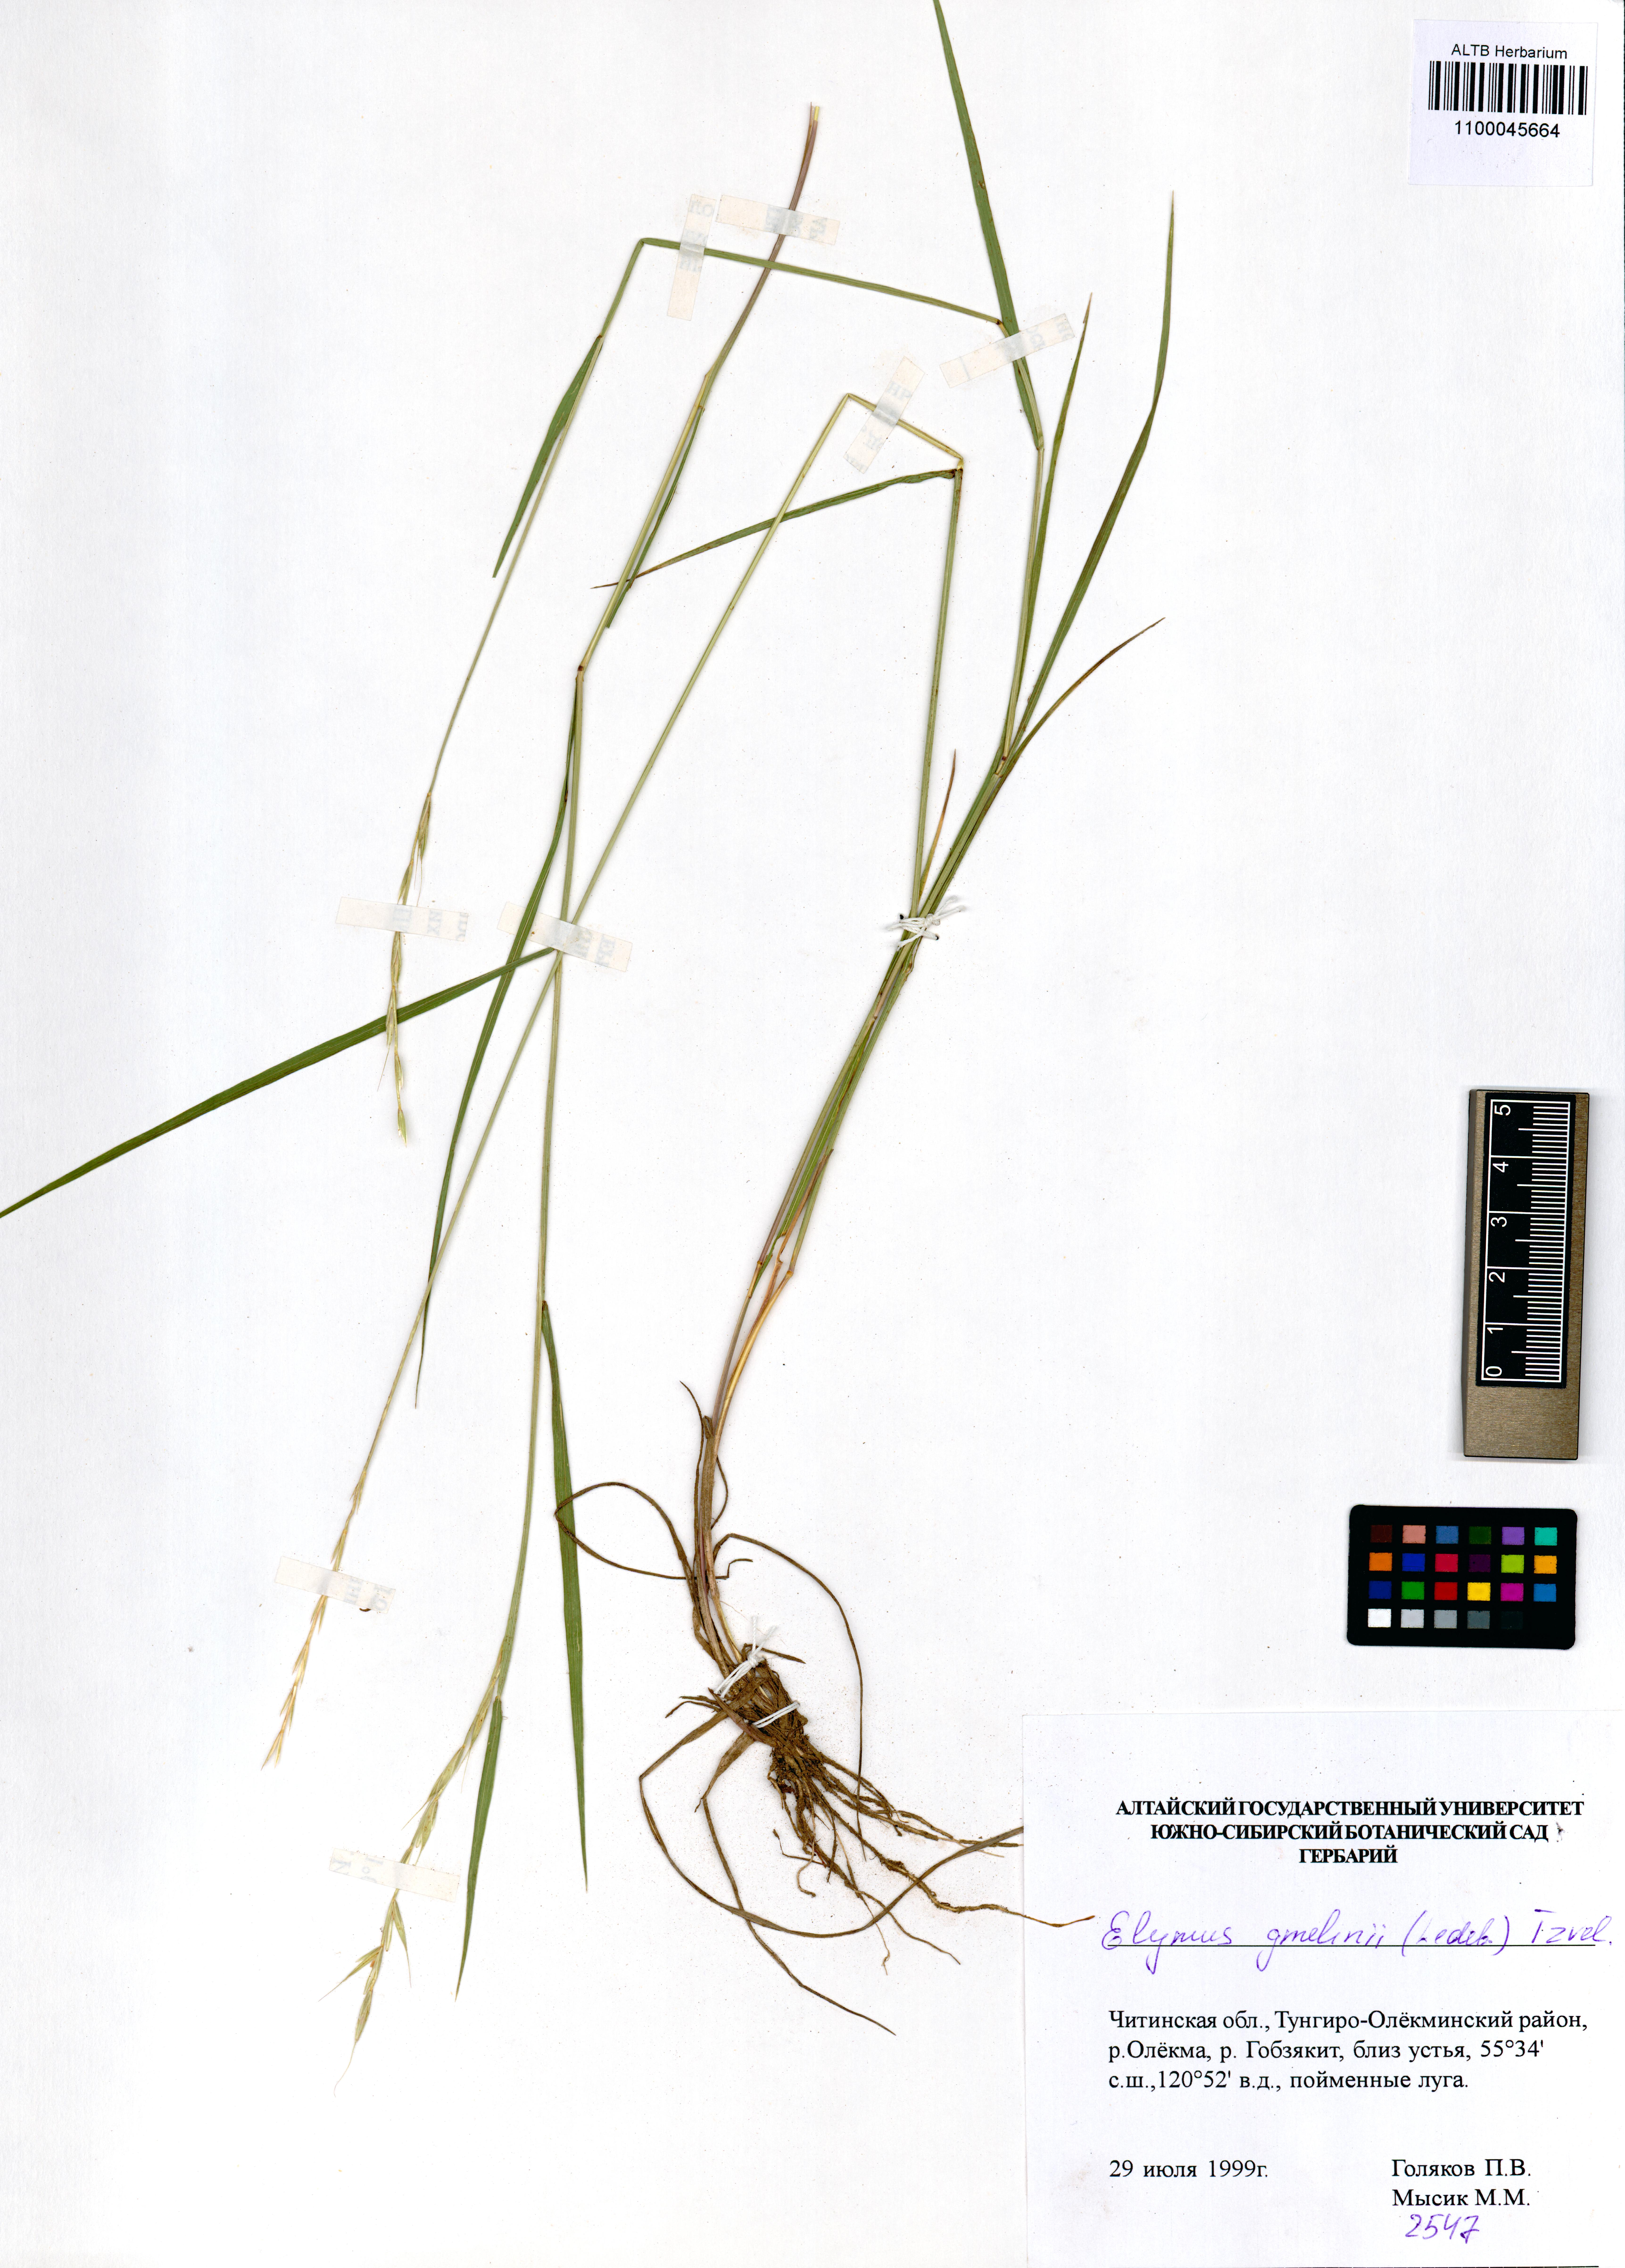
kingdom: Plantae
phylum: Tracheophyta
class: Liliopsida
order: Poales
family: Poaceae
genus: Elymus
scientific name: Elymus gmelinii
